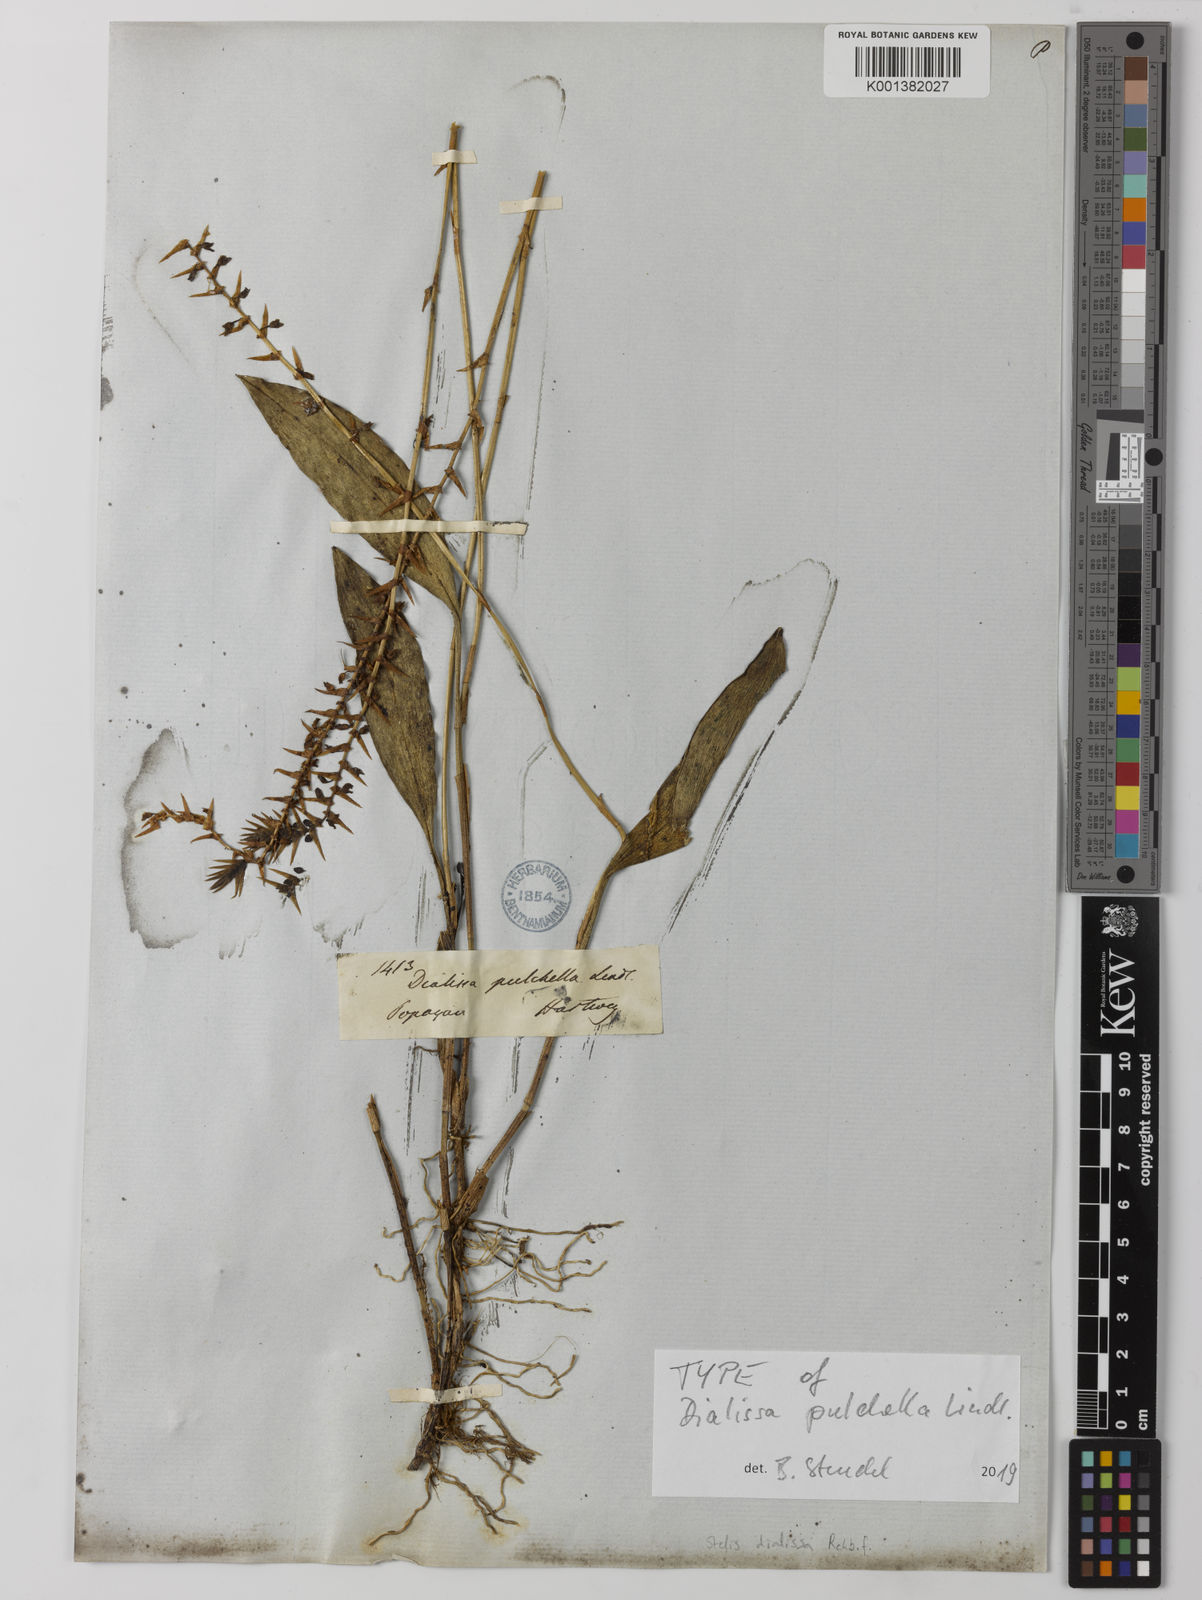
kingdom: Plantae
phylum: Tracheophyta
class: Liliopsida
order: Asparagales
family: Orchidaceae
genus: Stelis
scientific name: Stelis dialissa
